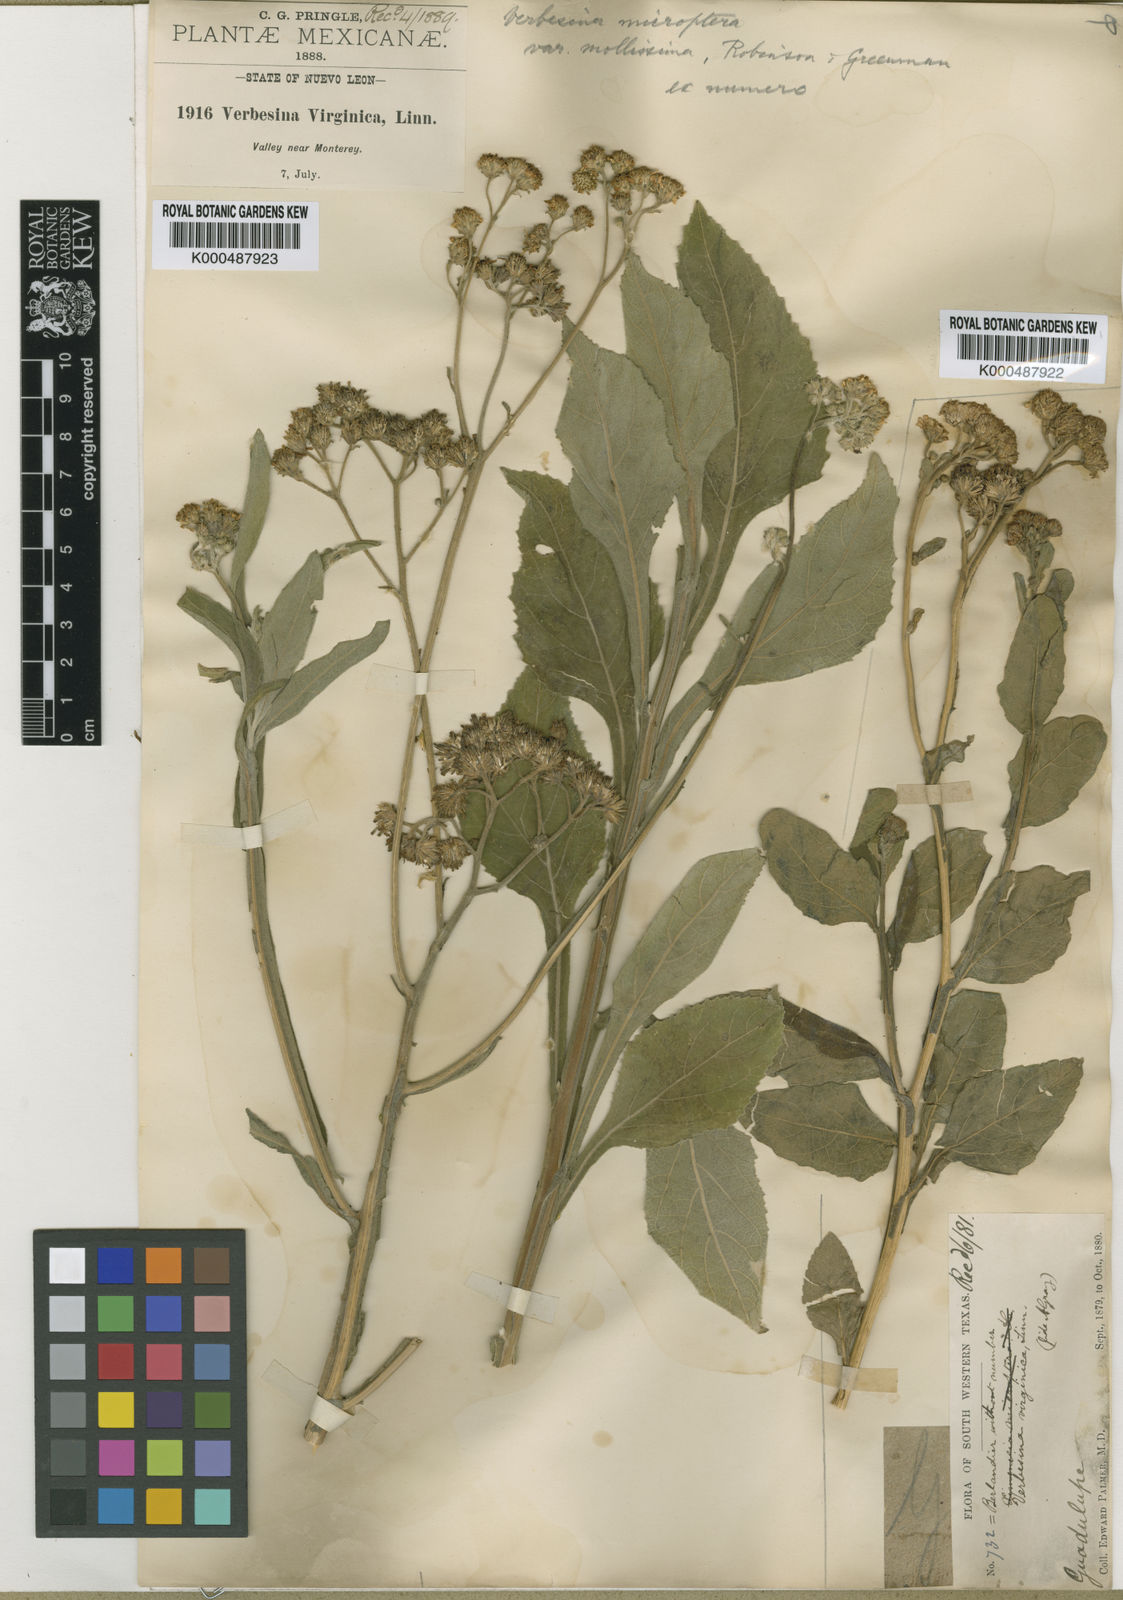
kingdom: Plantae
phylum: Tracheophyta
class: Magnoliopsida
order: Asterales
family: Asteraceae
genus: Verbesina
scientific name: Verbesina microptera
